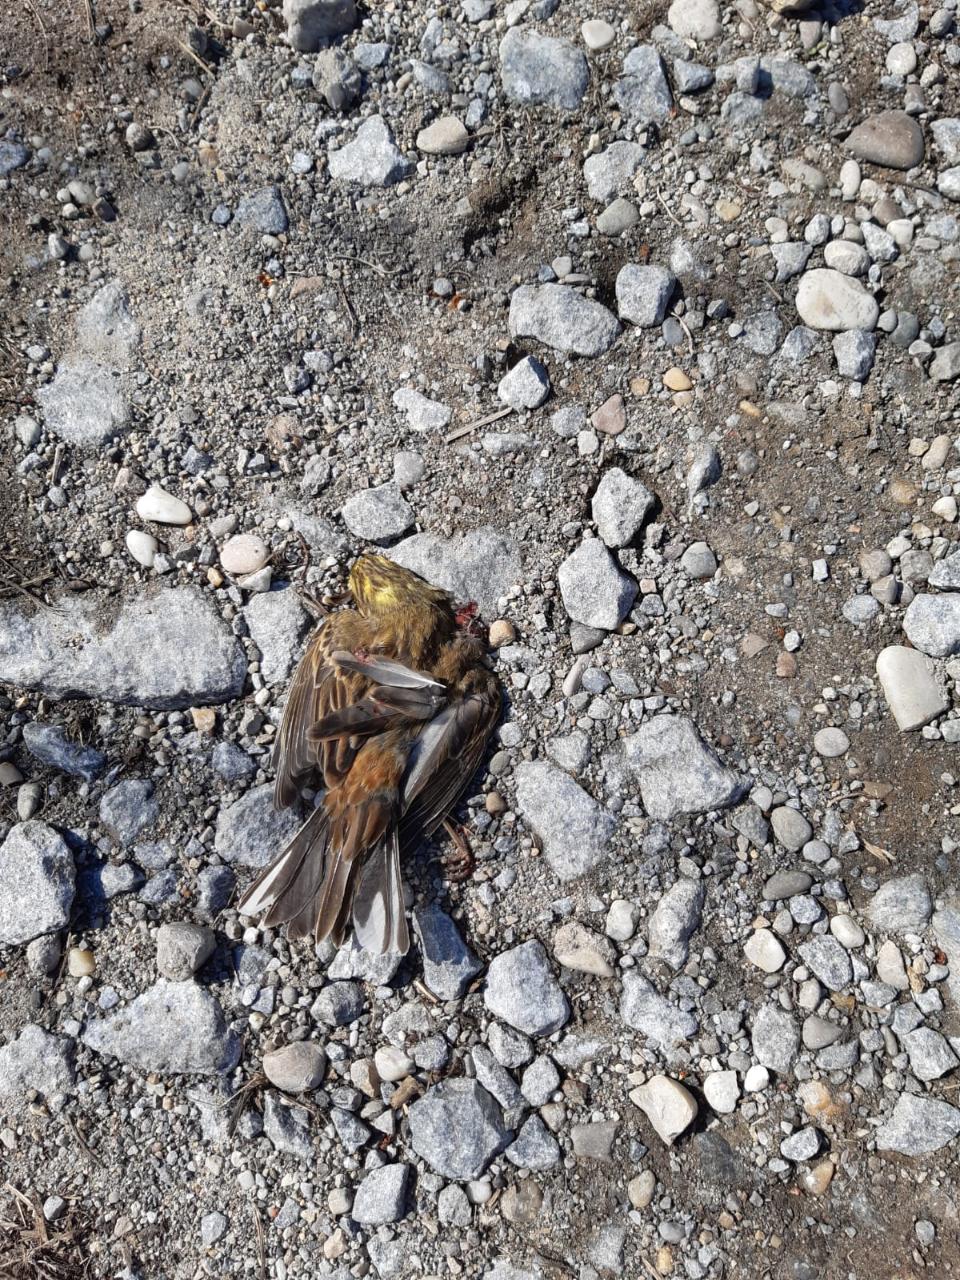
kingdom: Animalia
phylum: Chordata
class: Aves
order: Passeriformes
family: Emberizidae
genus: Emberiza
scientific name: Emberiza citrinella
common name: Yellowhammer
